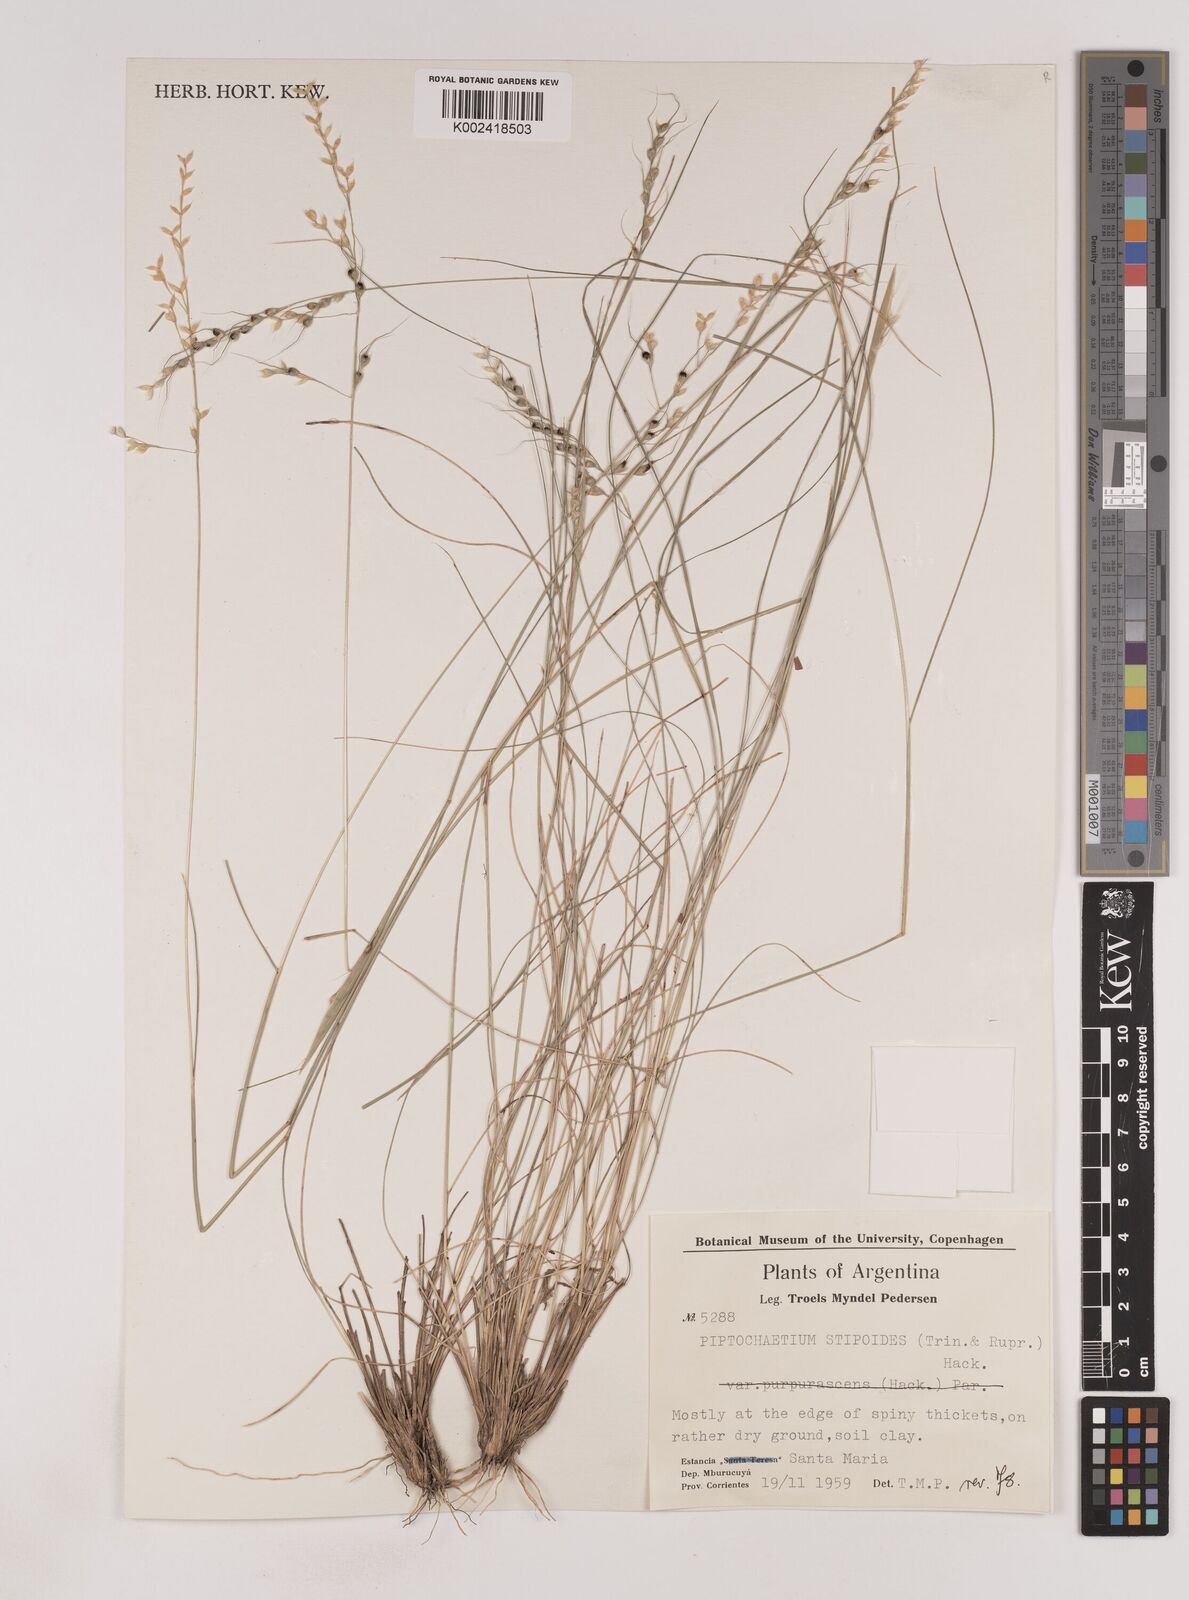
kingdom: Plantae
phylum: Tracheophyta
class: Liliopsida
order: Poales
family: Poaceae
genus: Piptochaetium
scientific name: Piptochaetium stipoides
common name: Purple speargrass
